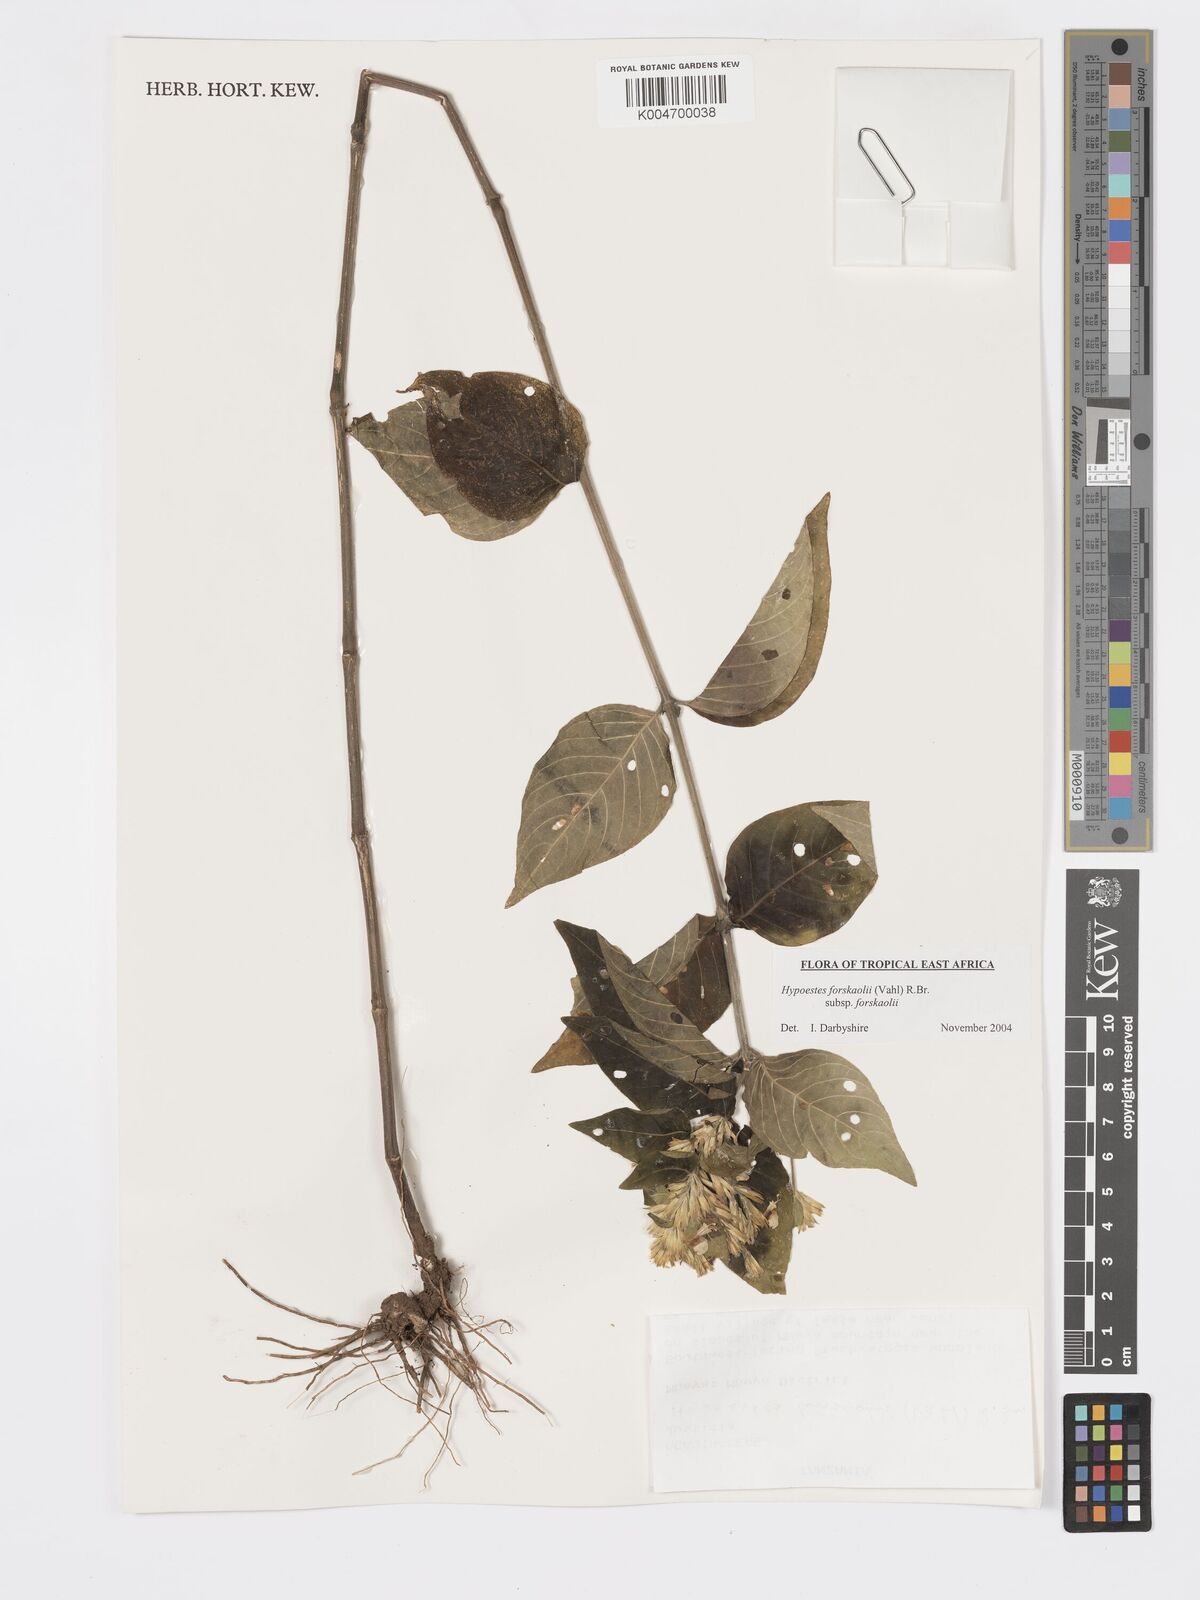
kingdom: Plantae
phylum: Tracheophyta
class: Magnoliopsida
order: Lamiales
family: Acanthaceae
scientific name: Acanthaceae
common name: Acanthaceae
